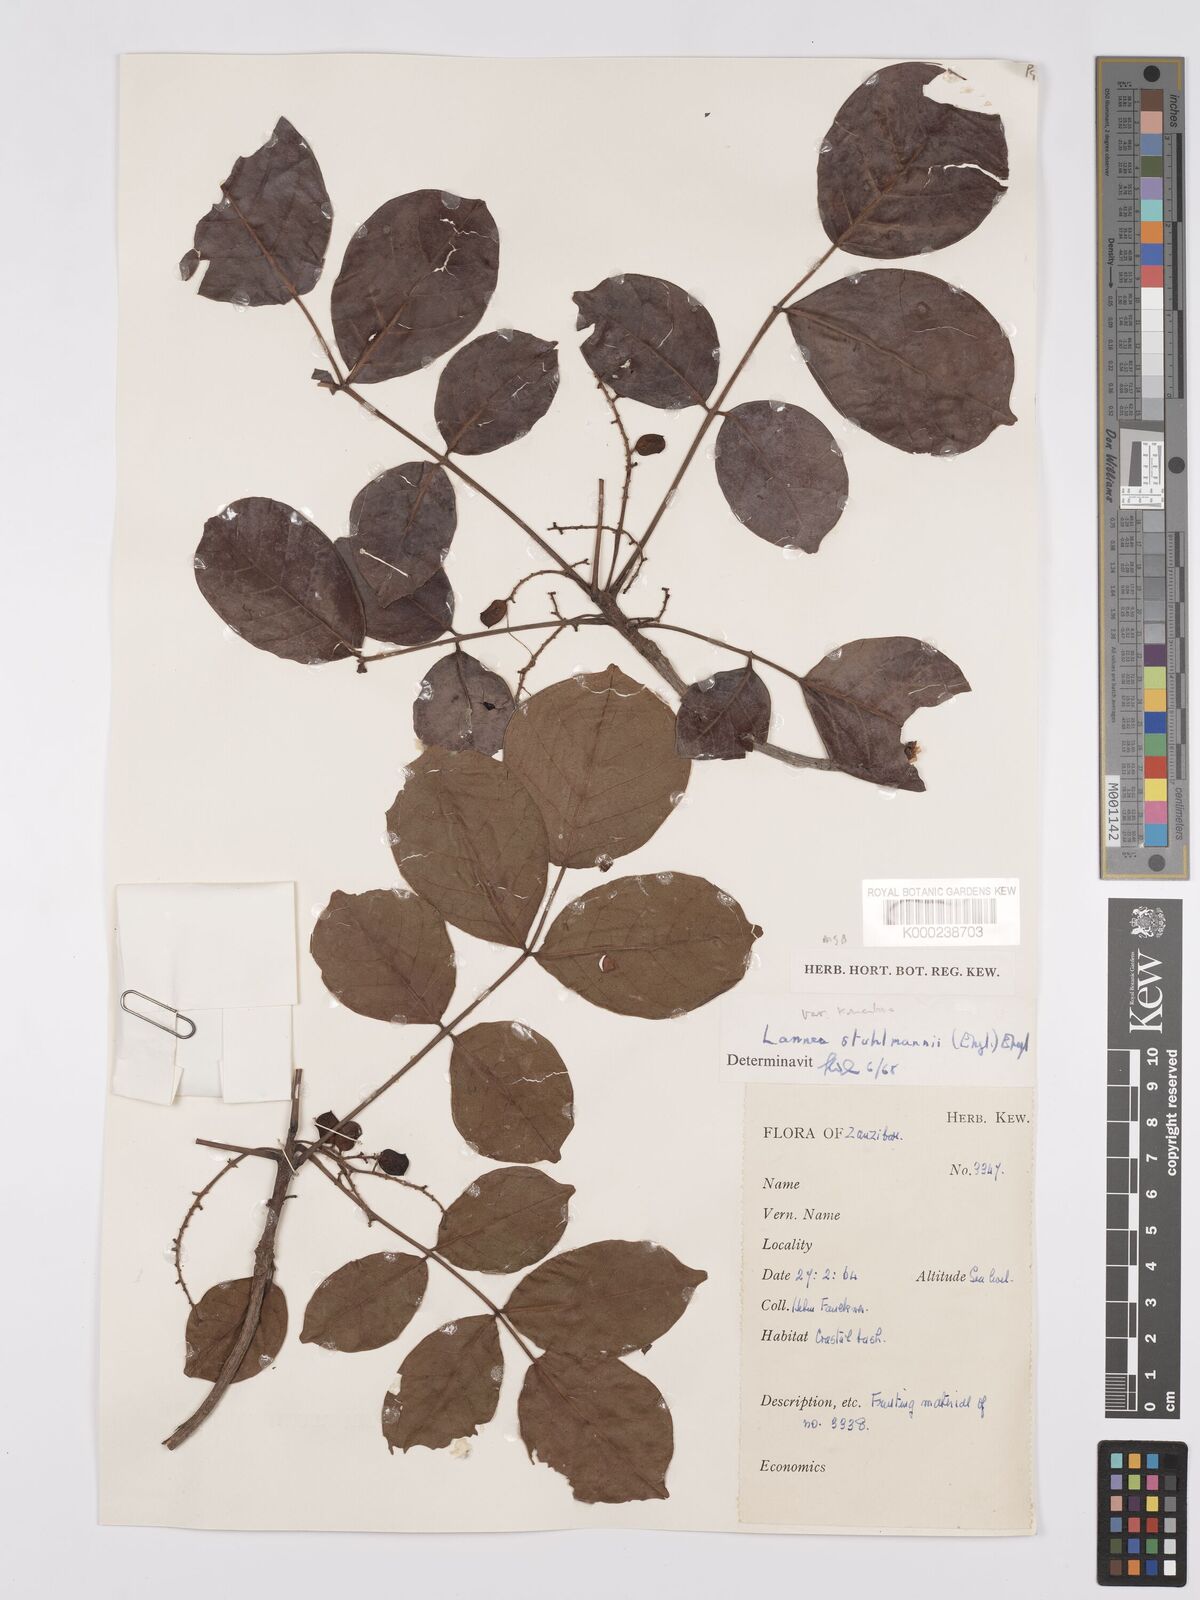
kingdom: Plantae
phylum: Tracheophyta
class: Magnoliopsida
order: Sapindales
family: Anacardiaceae
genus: Lannea
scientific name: Lannea schweinfurthii
